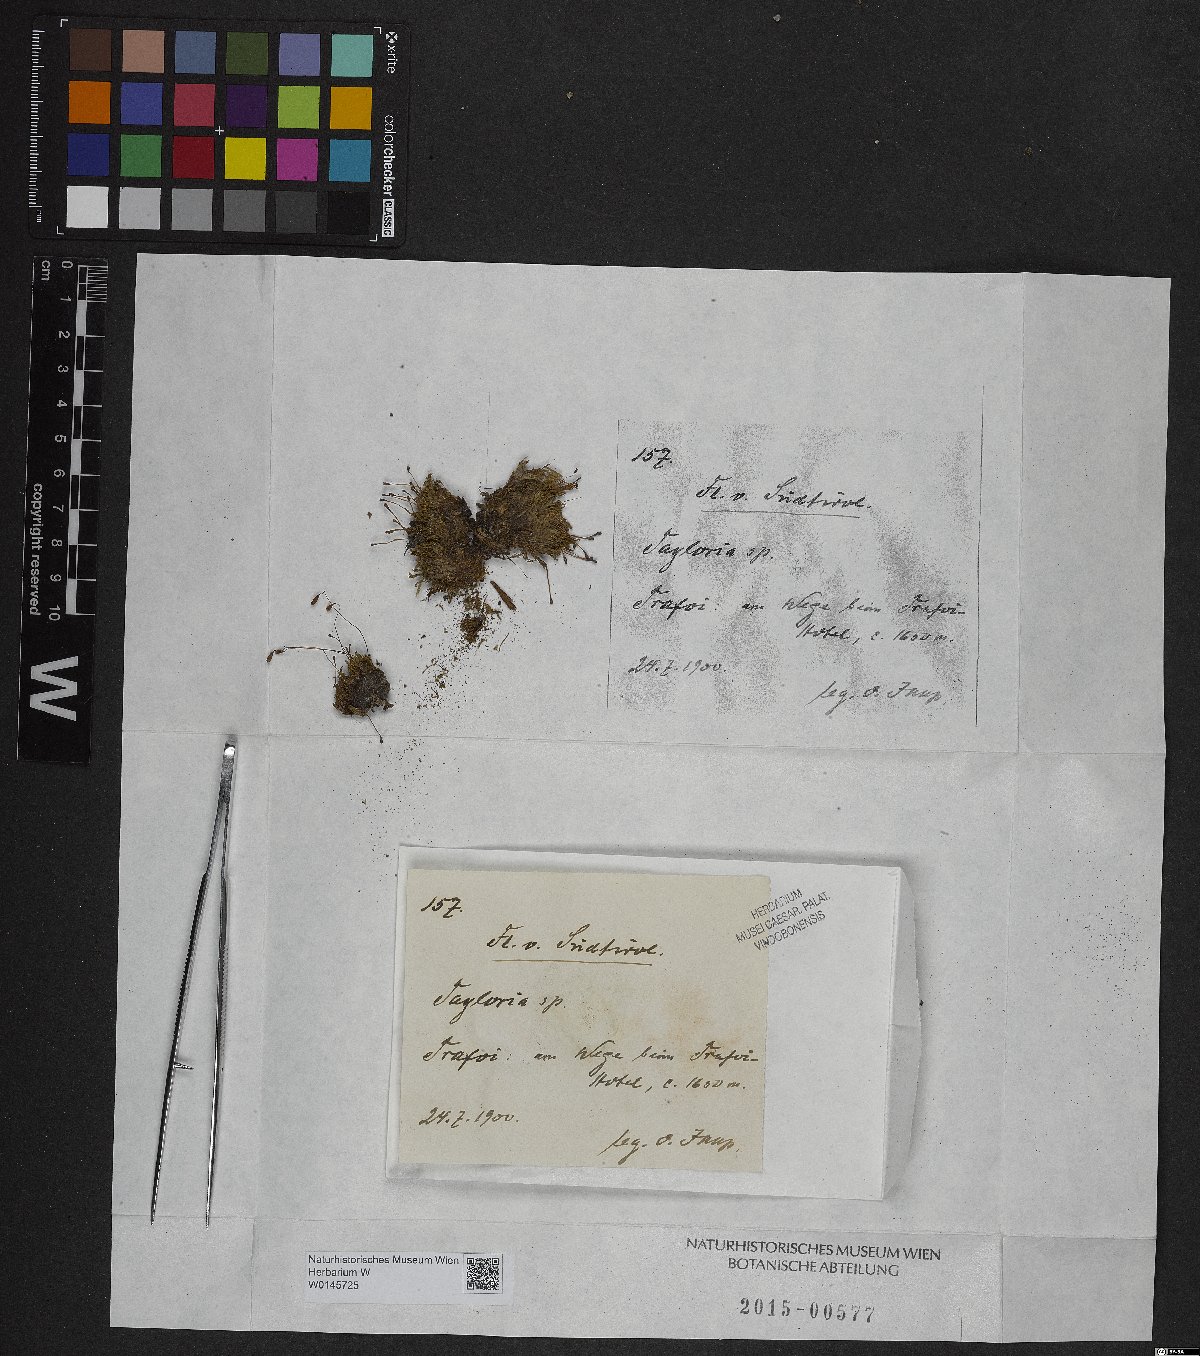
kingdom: Plantae
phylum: Bryophyta
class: Bryopsida
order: Splachnales
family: Splachnaceae
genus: Tayloria
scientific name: Tayloria
